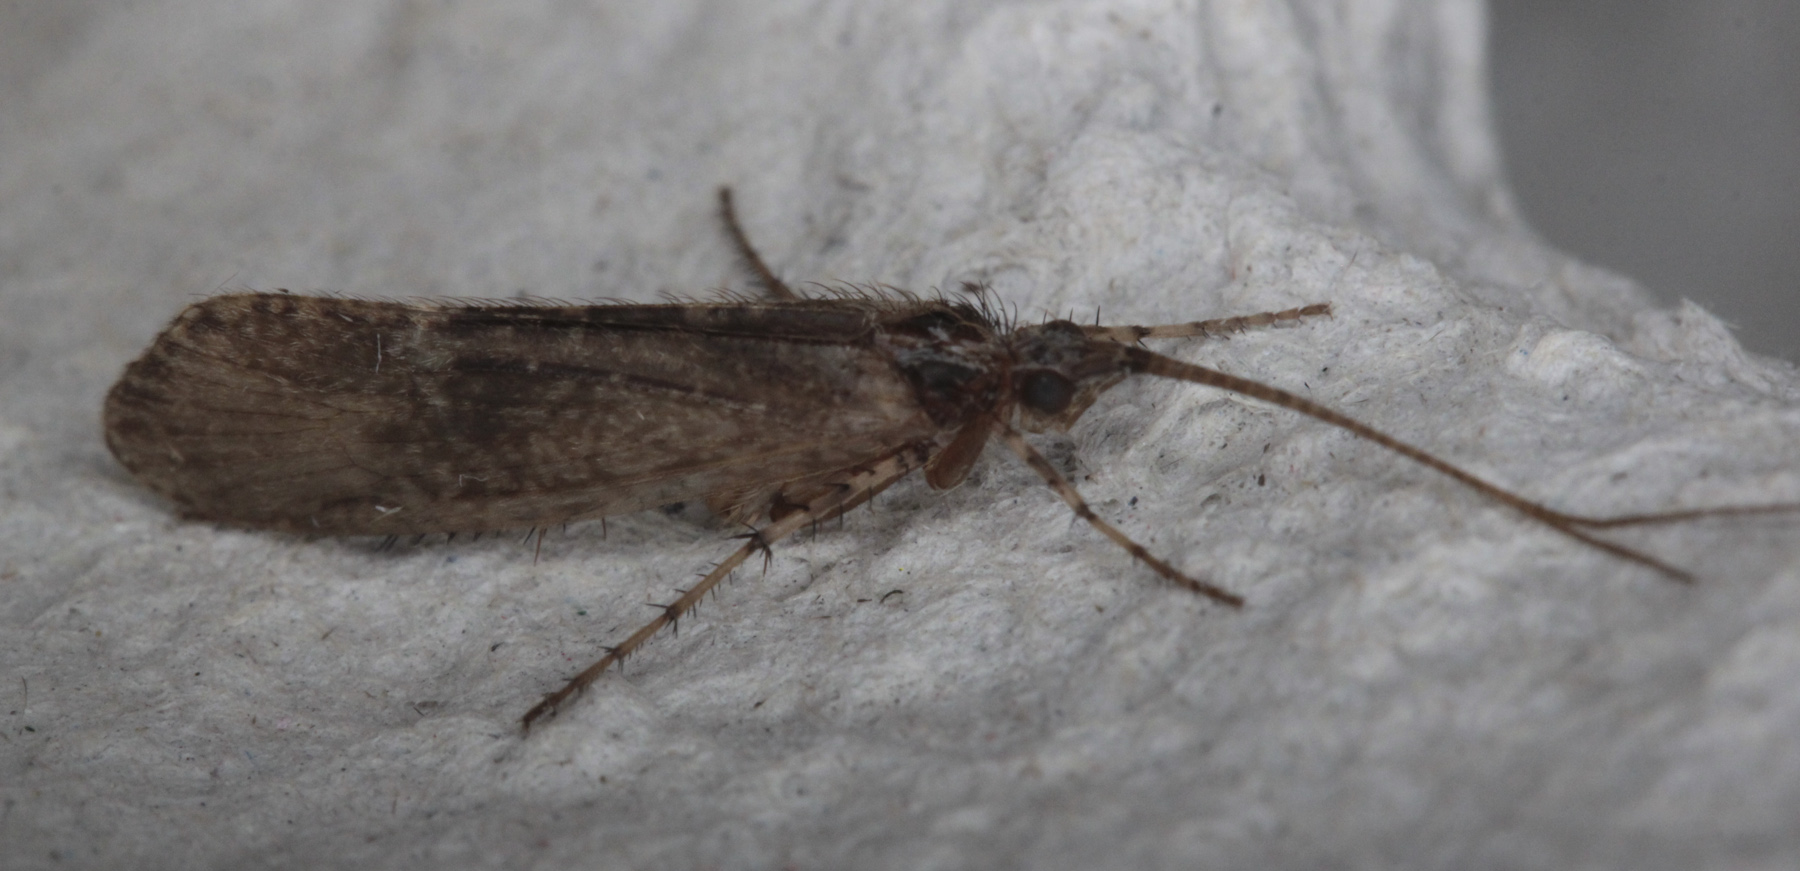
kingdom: Animalia
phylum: Arthropoda
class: Insecta
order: Trichoptera
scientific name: Trichoptera
